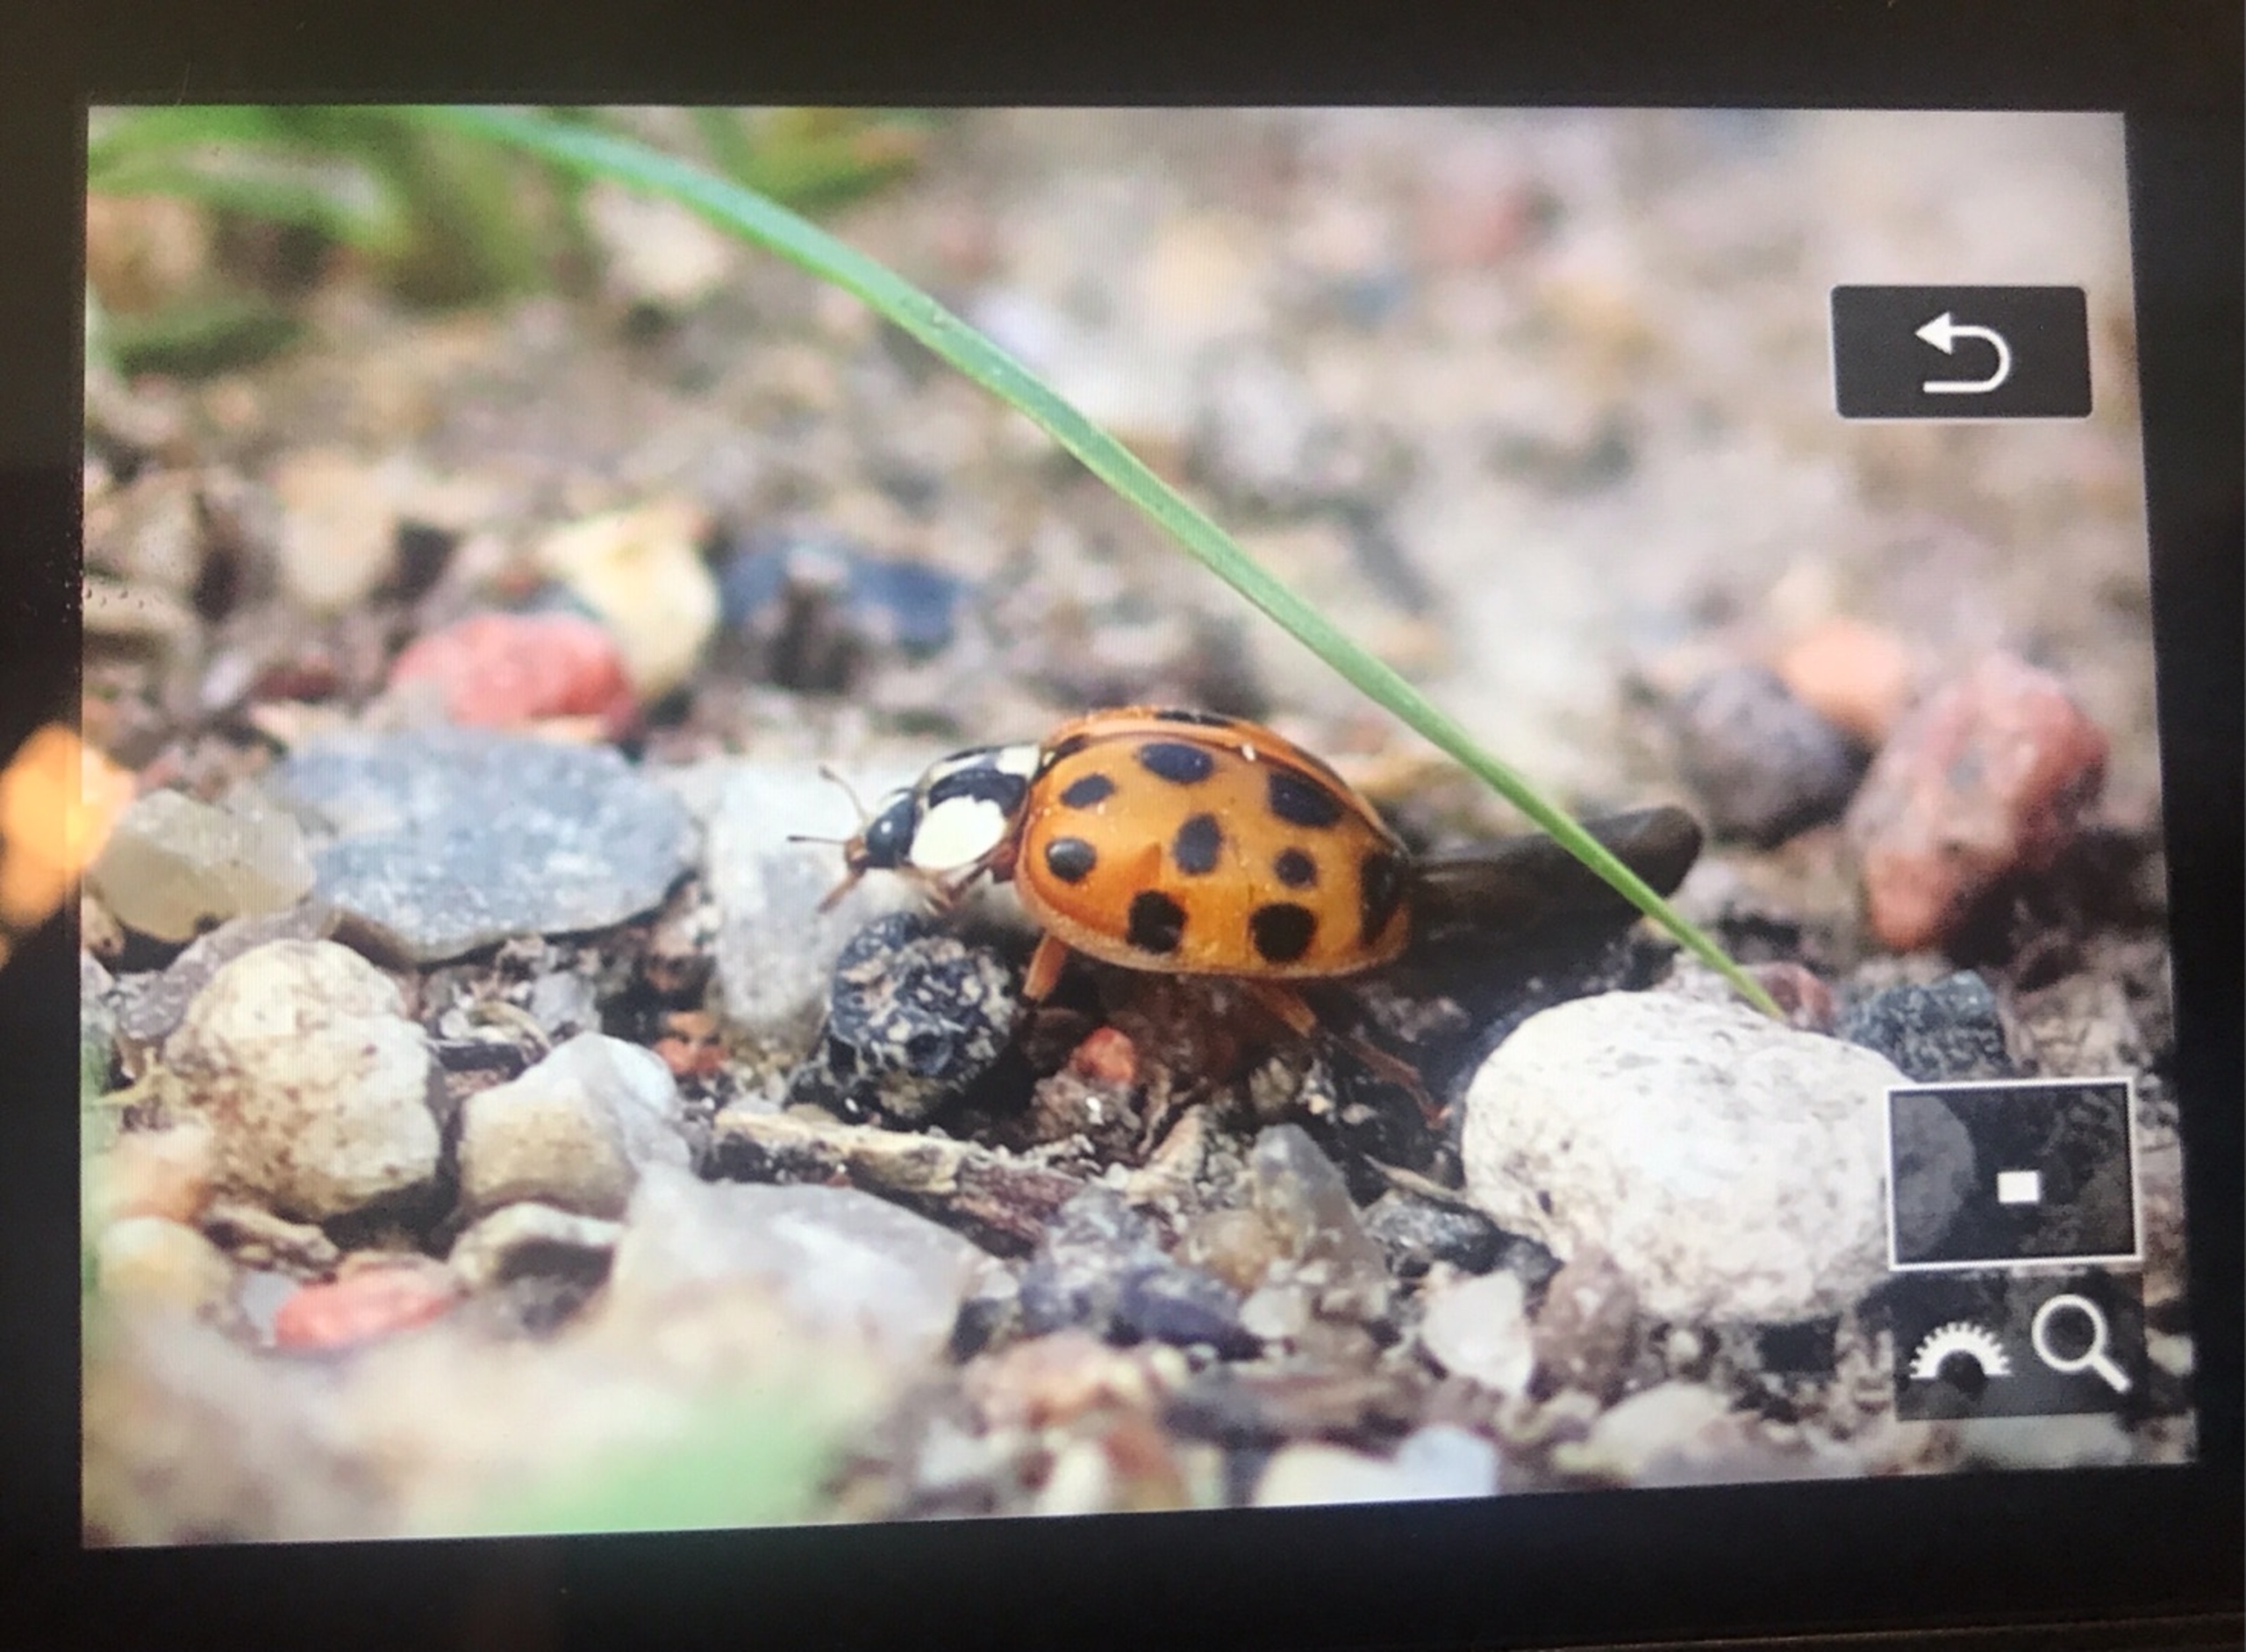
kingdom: Animalia
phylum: Arthropoda
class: Insecta
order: Coleoptera
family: Coccinellidae
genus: Harmonia
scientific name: Harmonia axyridis
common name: Harlekinmariehøne
